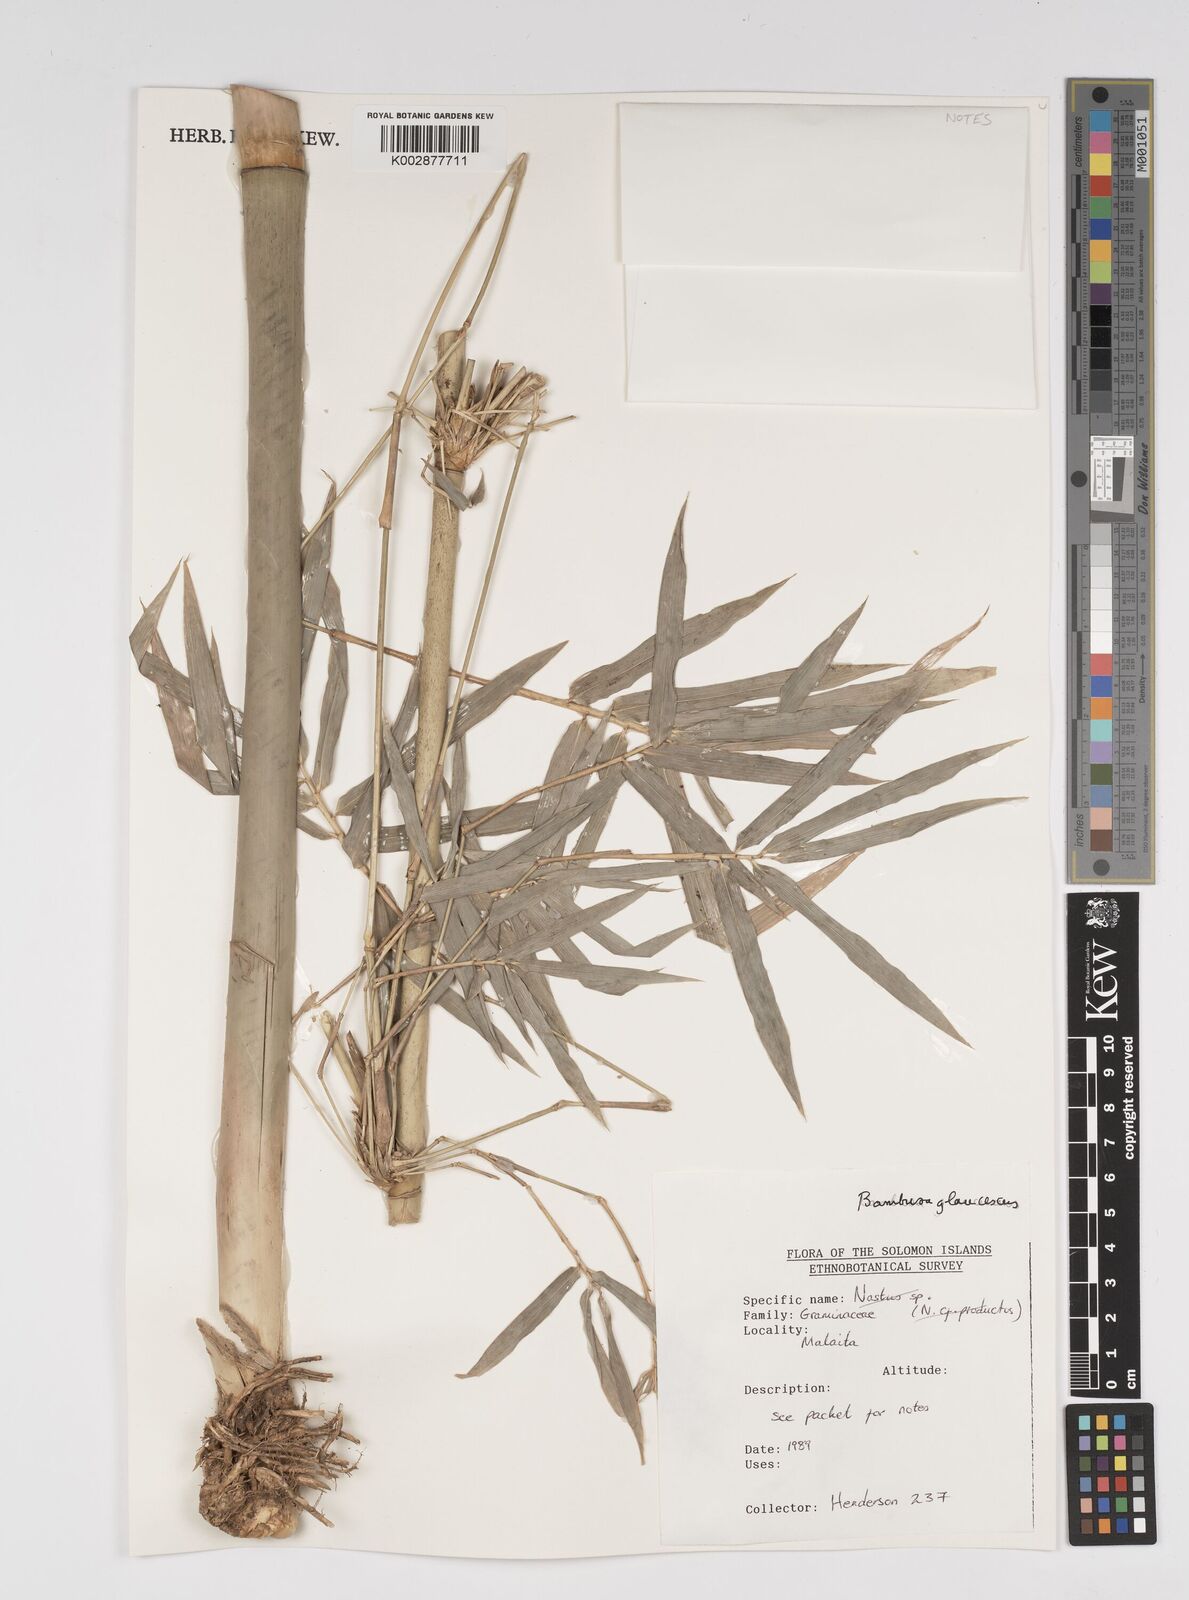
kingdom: Plantae
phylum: Tracheophyta
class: Liliopsida
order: Poales
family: Poaceae
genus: Bambusa
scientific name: Bambusa multiplex
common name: Hedge bamboo
